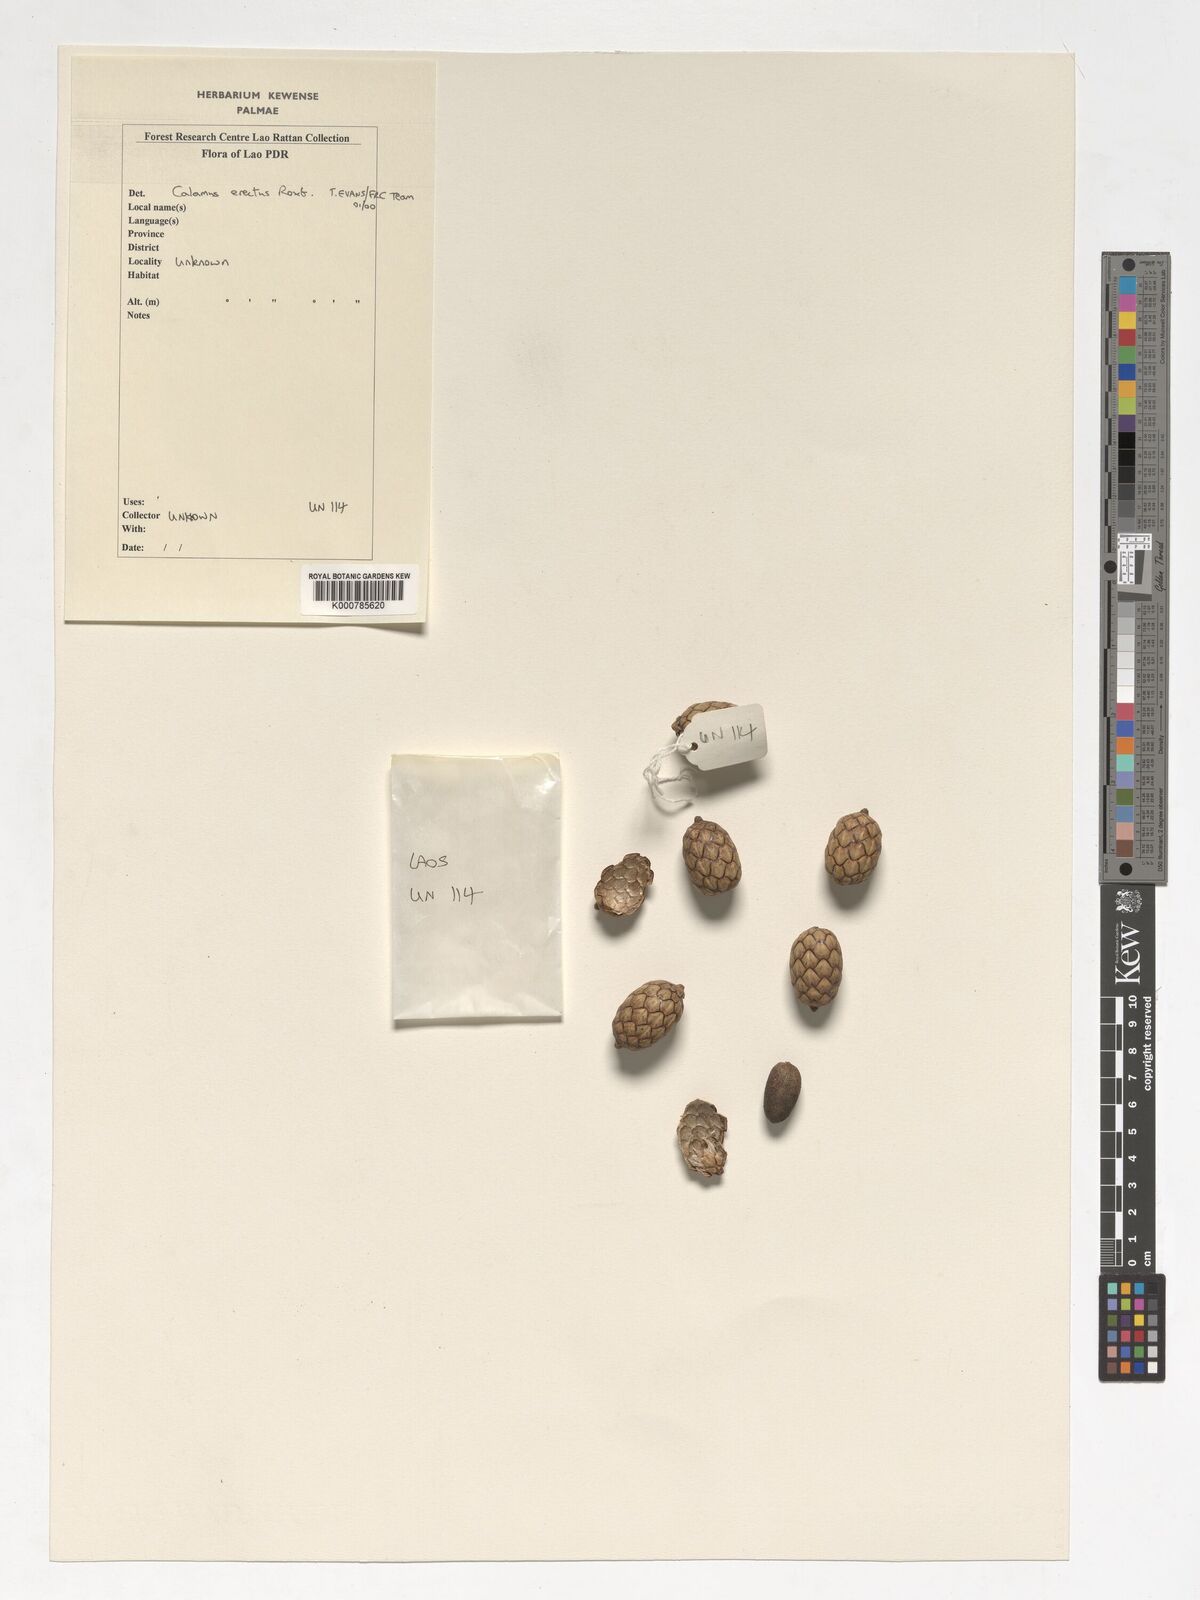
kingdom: Plantae
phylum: Tracheophyta
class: Liliopsida
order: Arecales
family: Arecaceae
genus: Calamus
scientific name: Calamus erectus
